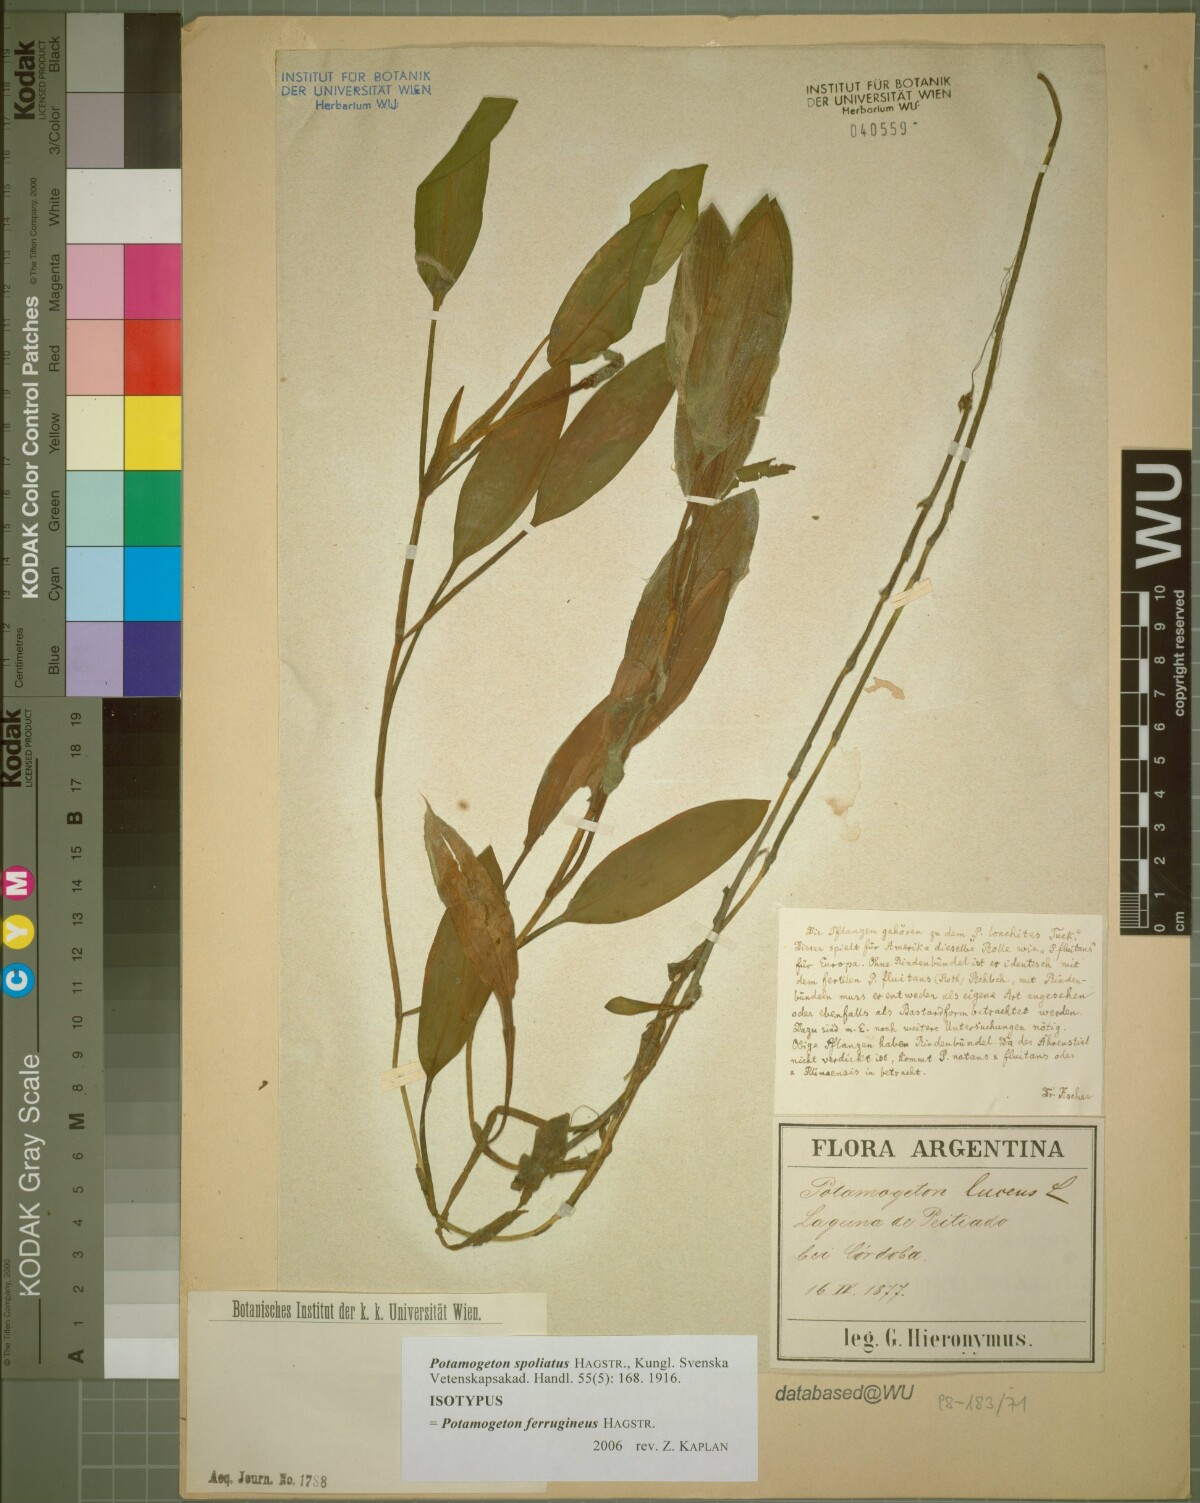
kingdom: Plantae
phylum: Tracheophyta
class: Liliopsida
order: Alismatales
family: Potamogetonaceae
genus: Potamogeton
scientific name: Potamogeton ferrugineus
